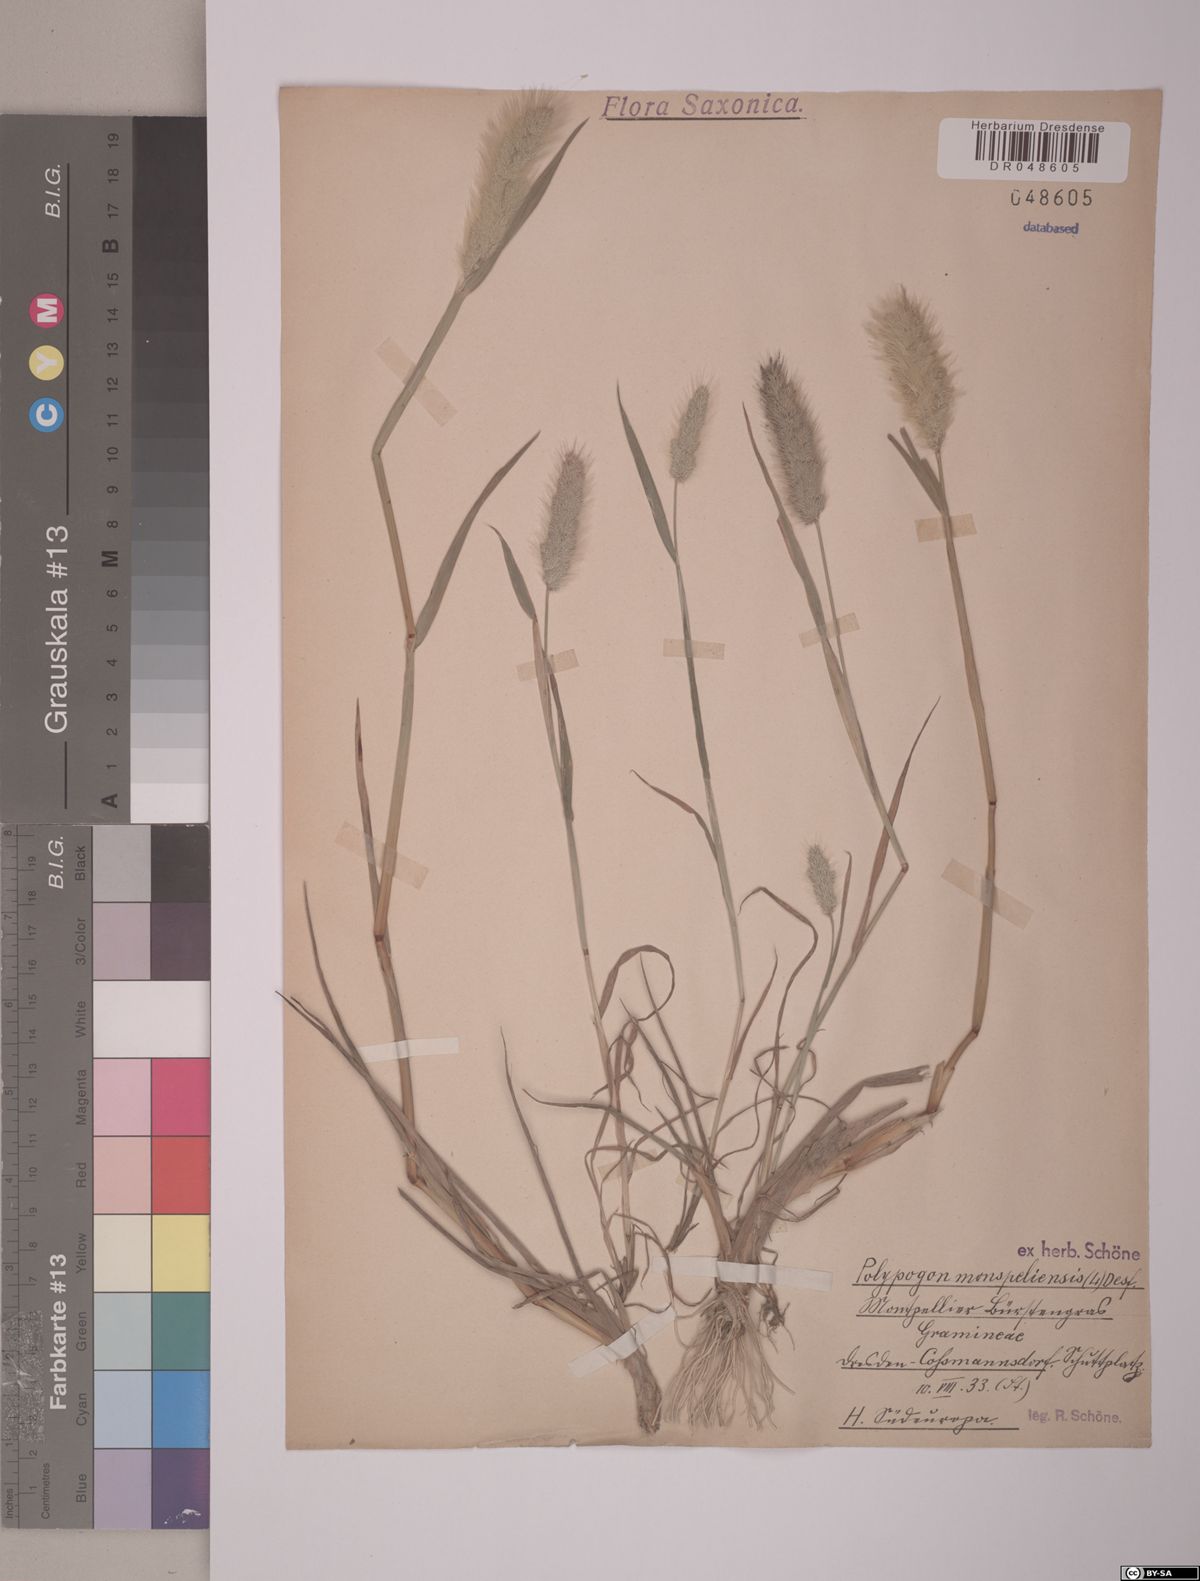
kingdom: Plantae
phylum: Tracheophyta
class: Liliopsida
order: Poales
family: Poaceae
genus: Polypogon
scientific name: Polypogon monspeliensis
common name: Annual rabbitsfoot grass
